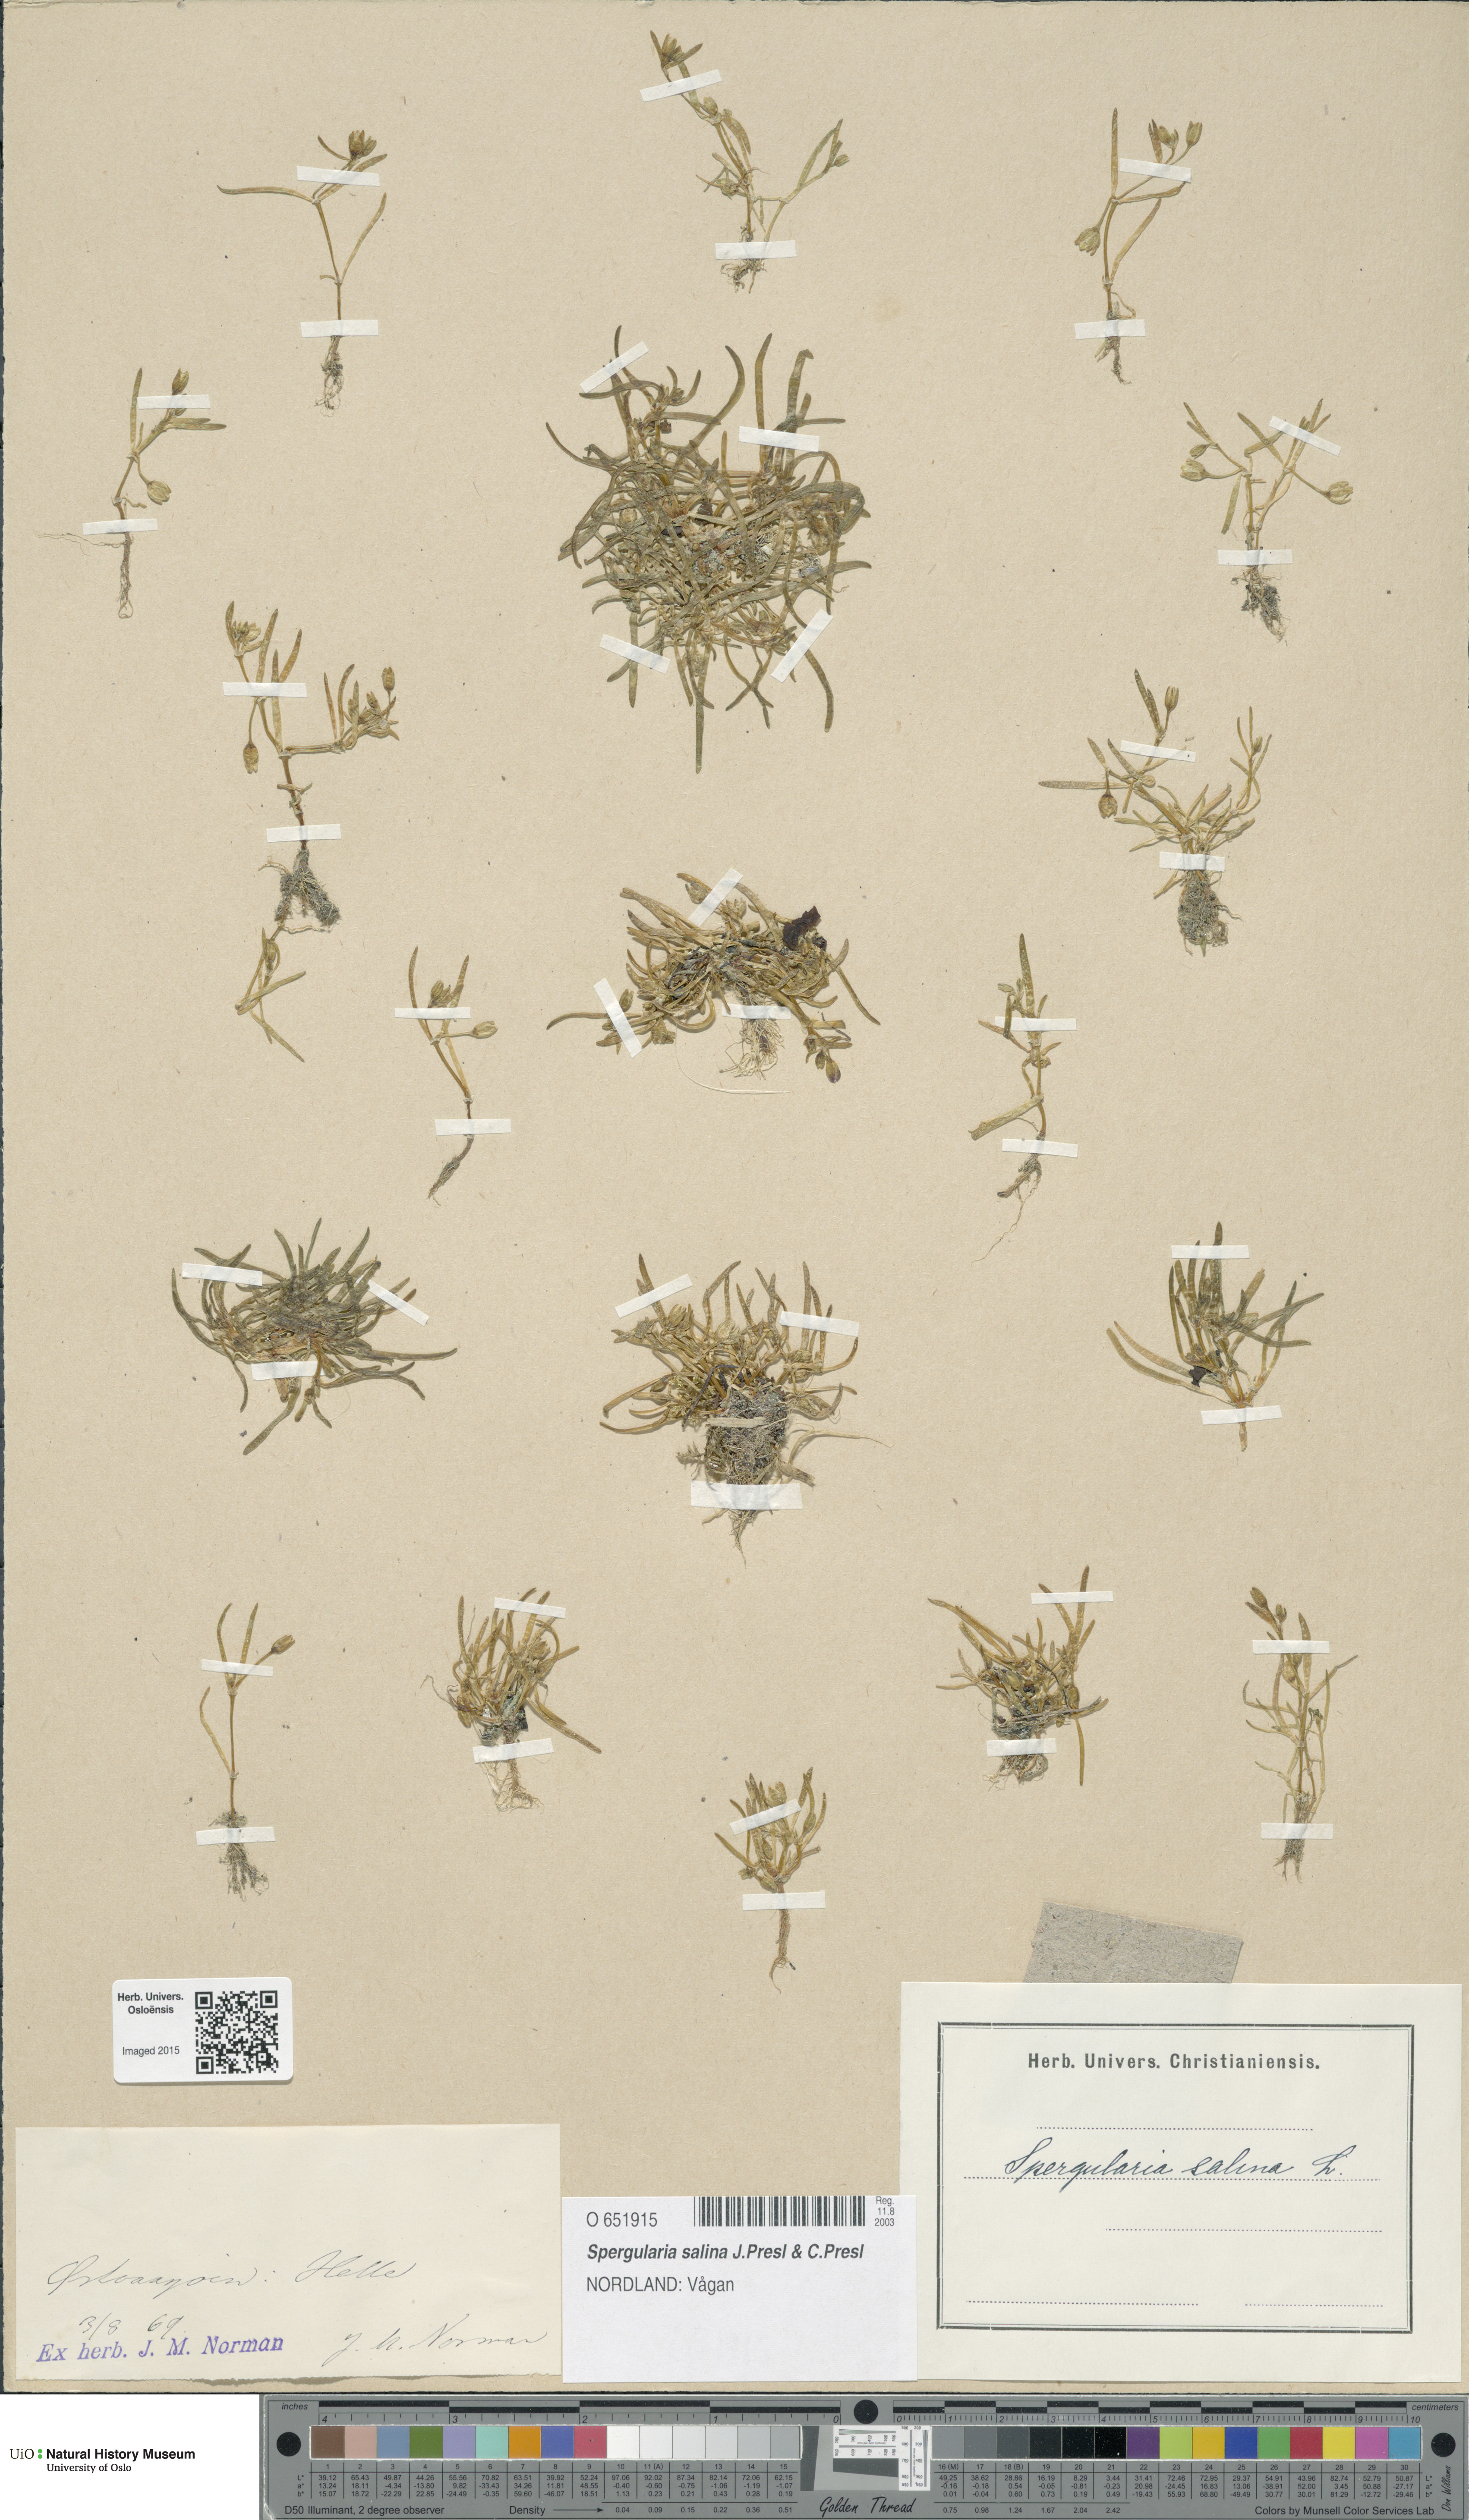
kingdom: Plantae
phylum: Tracheophyta
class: Magnoliopsida
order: Caryophyllales
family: Caryophyllaceae
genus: Spergularia
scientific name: Spergularia marina
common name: Lesser sea-spurrey
